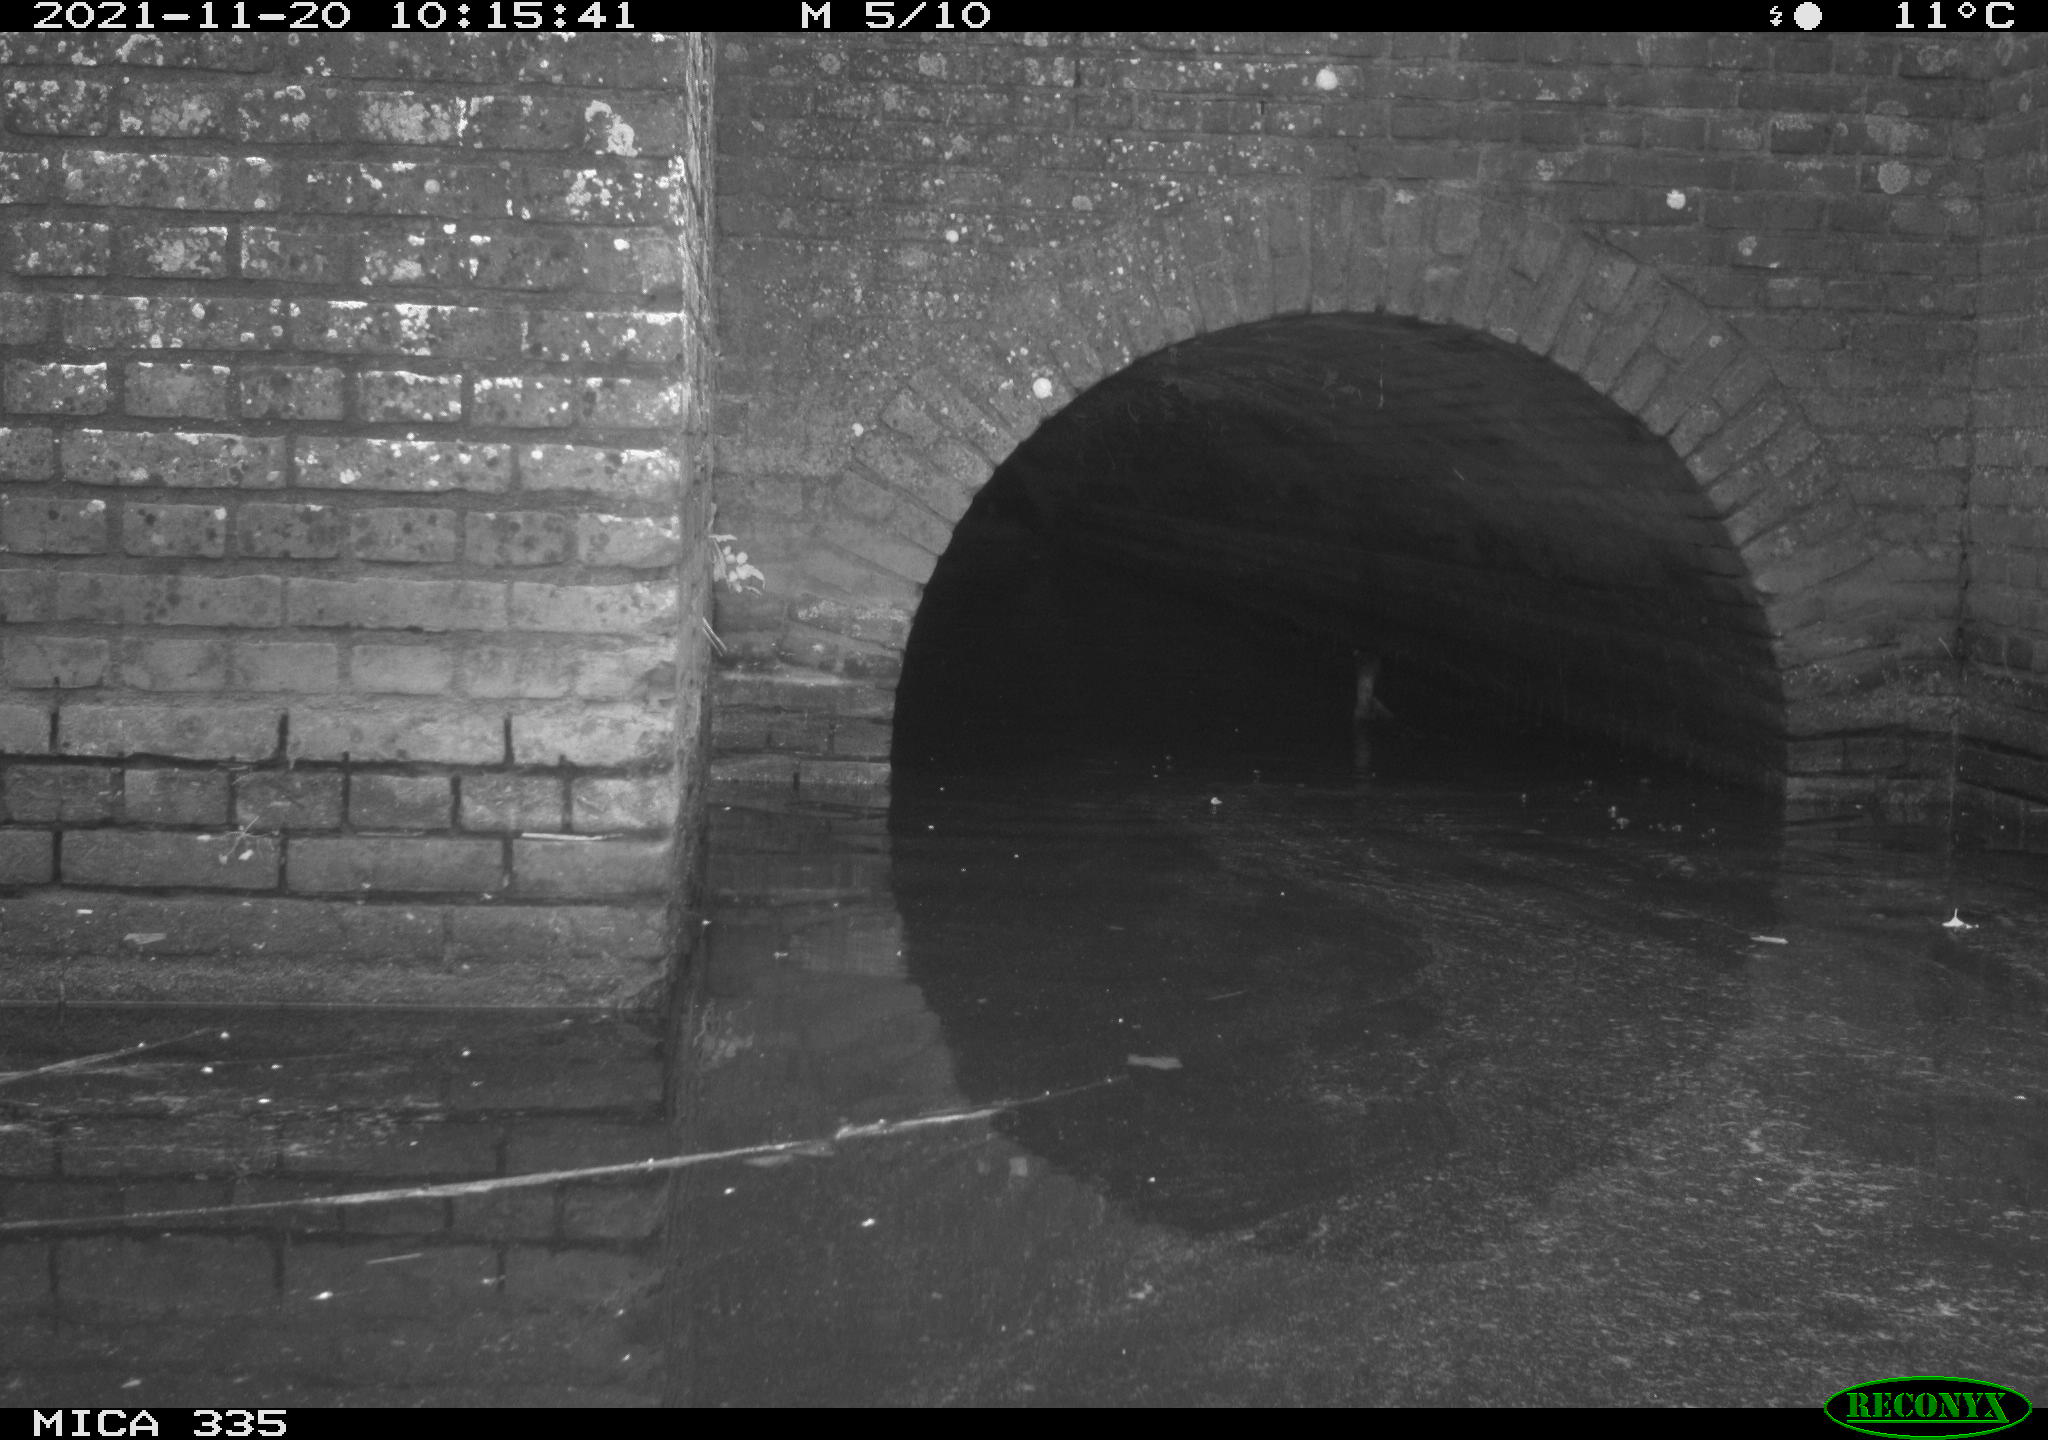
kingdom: Animalia
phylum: Chordata
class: Aves
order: Suliformes
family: Phalacrocoracidae
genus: Phalacrocorax
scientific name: Phalacrocorax carbo
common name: Great cormorant
